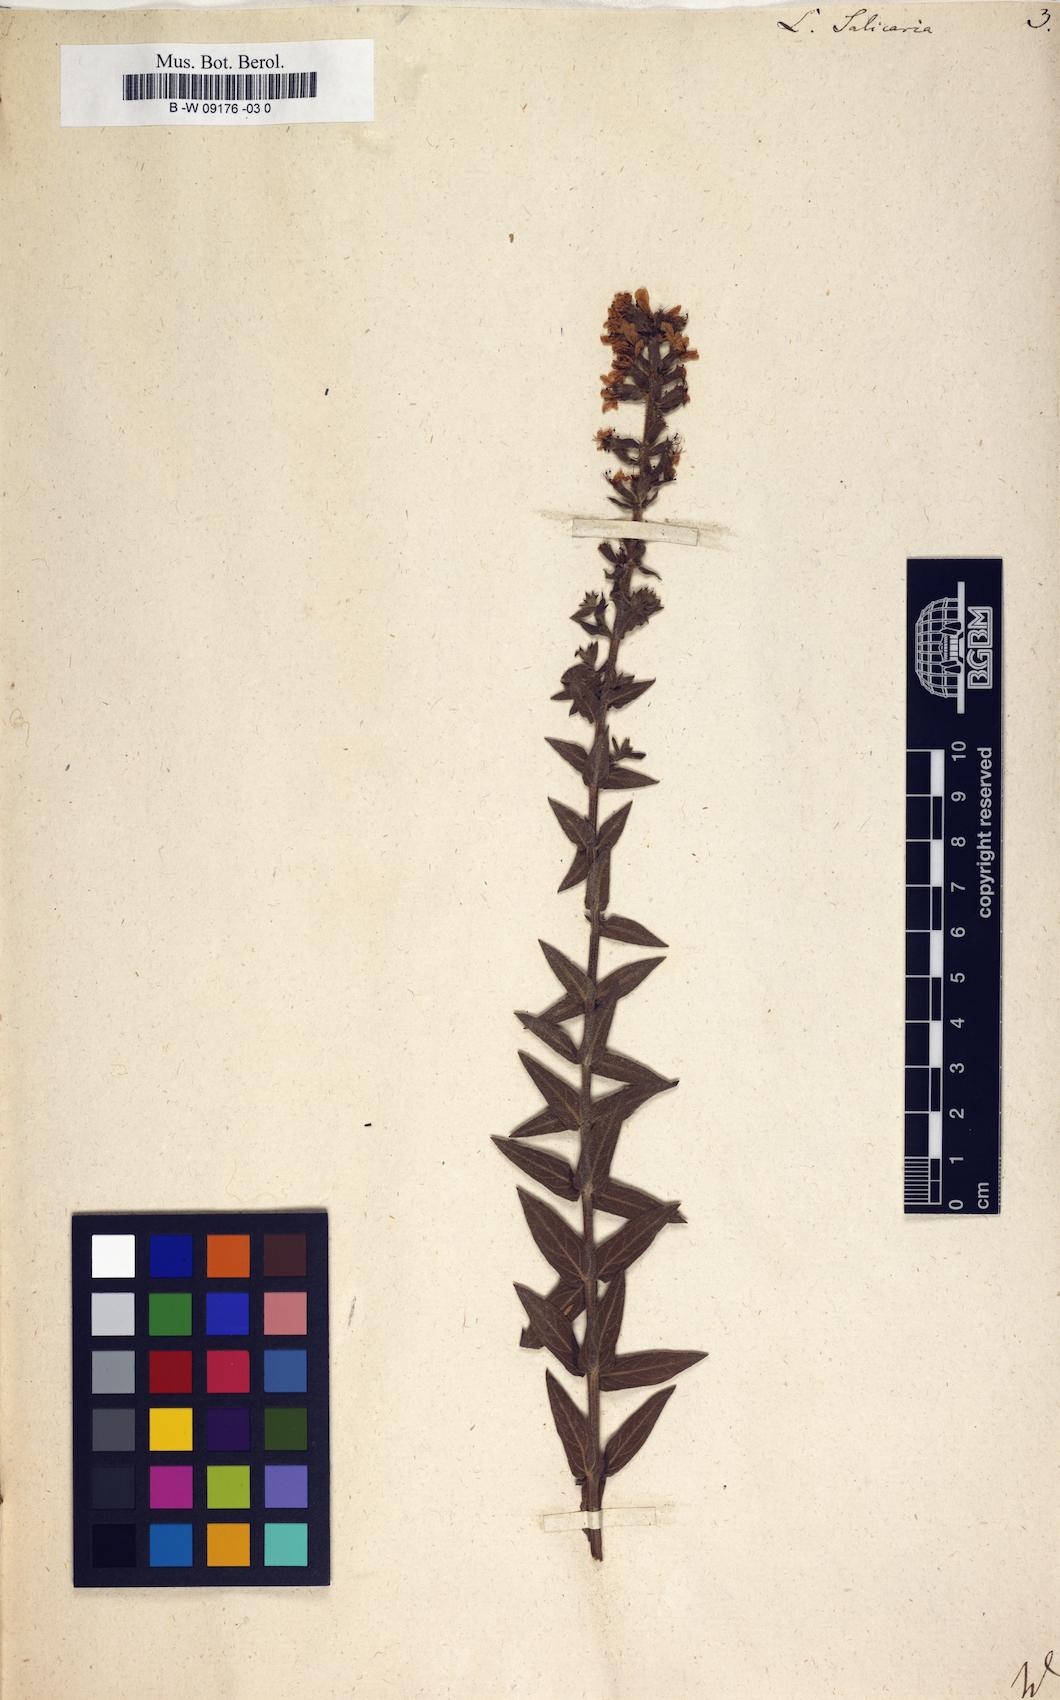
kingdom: Plantae
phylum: Tracheophyta
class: Magnoliopsida
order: Myrtales
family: Lythraceae
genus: Lythrum
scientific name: Lythrum salicaria
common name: Purple loosestrife
